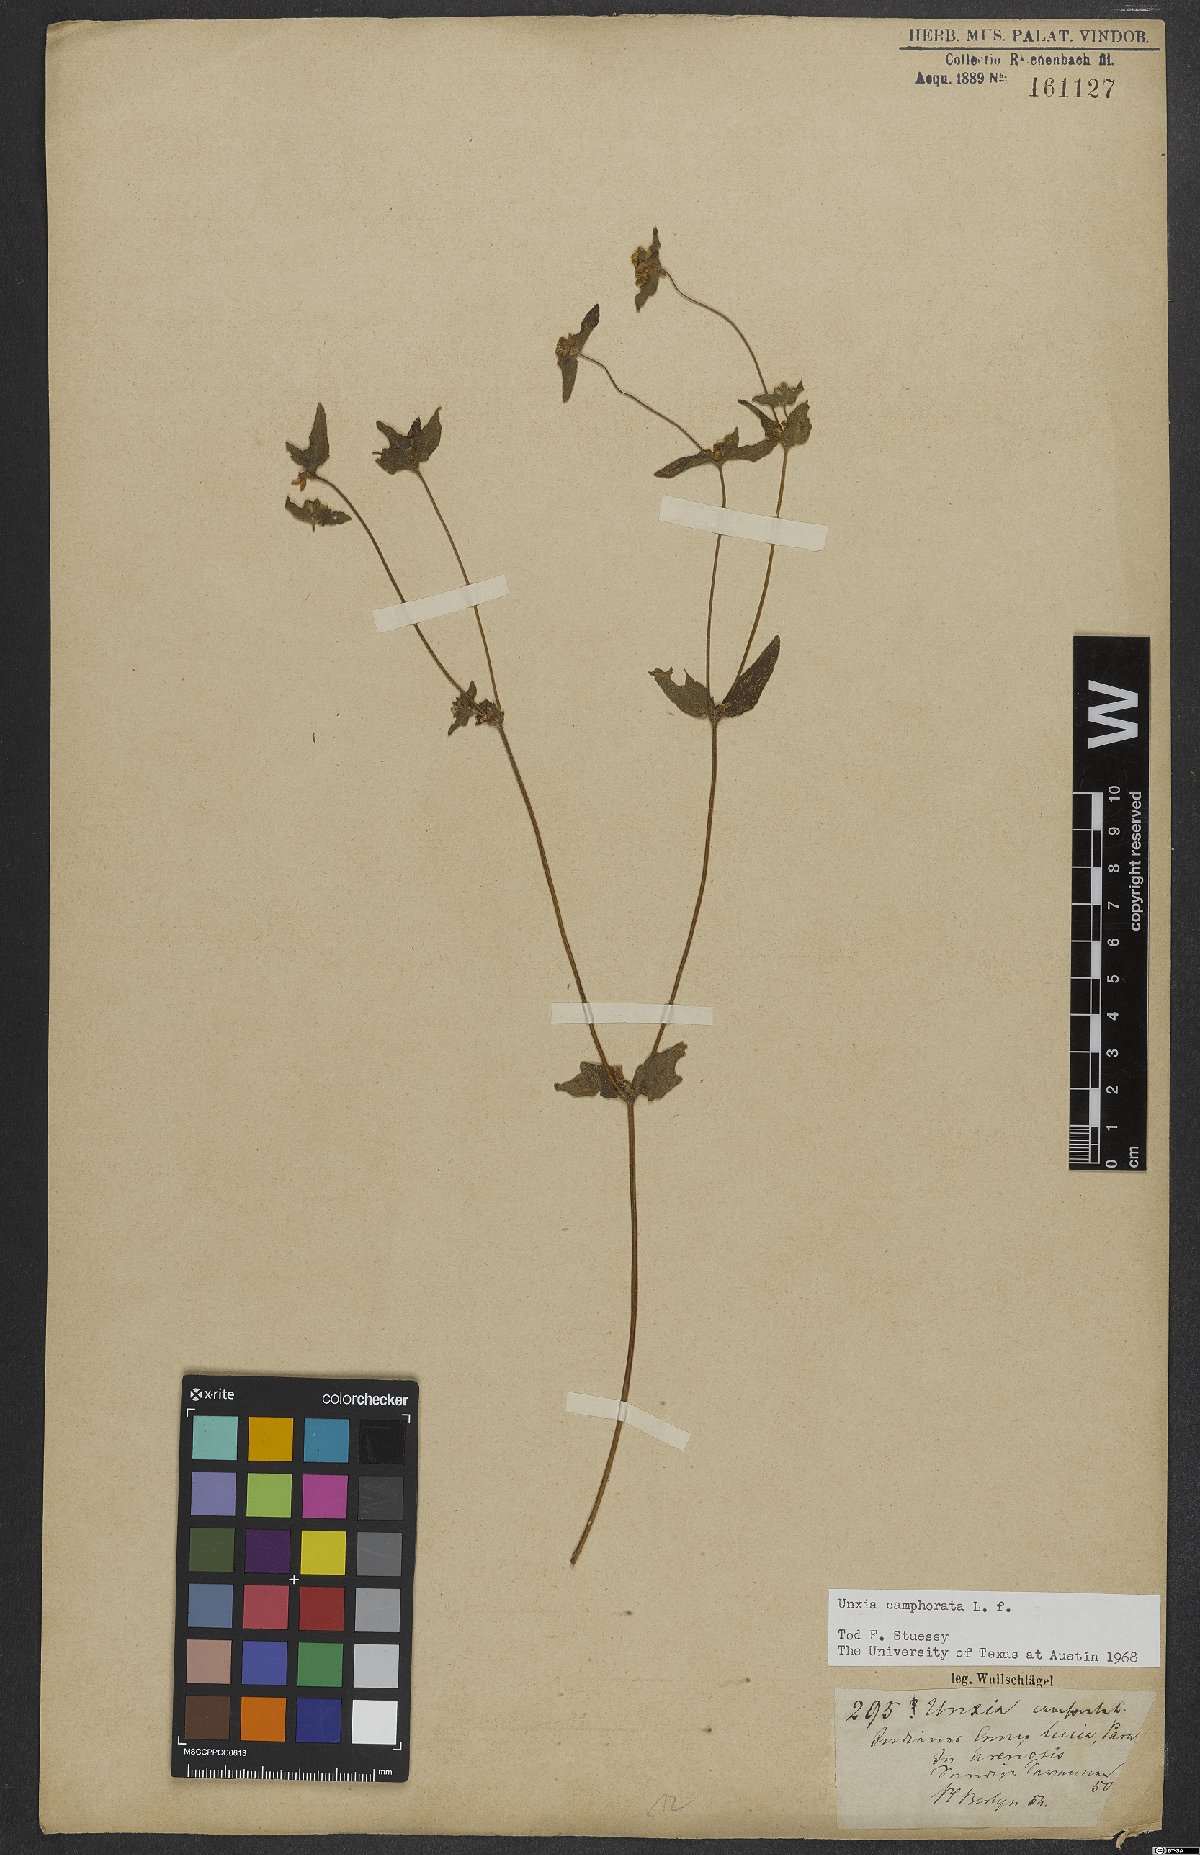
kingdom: Plantae
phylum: Tracheophyta
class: Magnoliopsida
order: Asterales
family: Asteraceae
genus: Unxia
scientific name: Unxia camphorata
